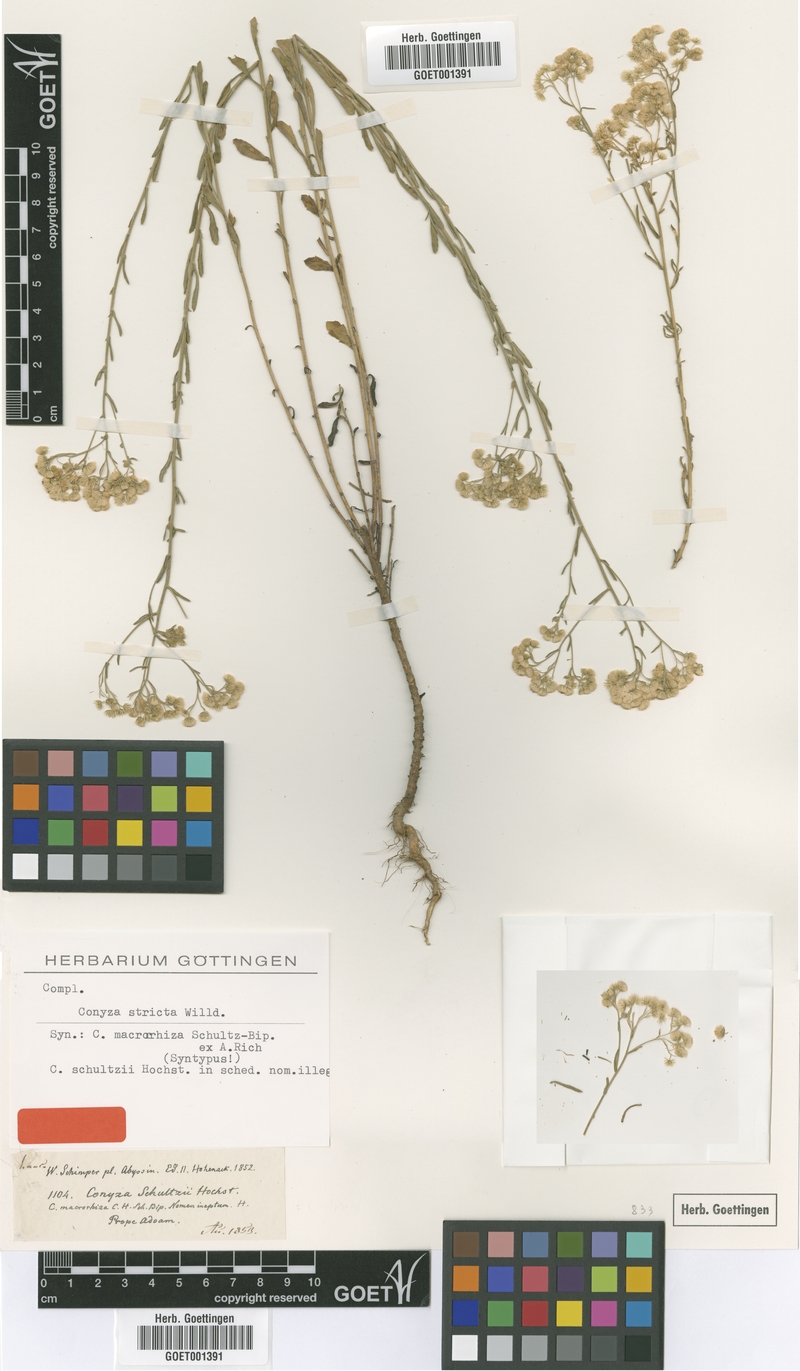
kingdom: Plantae
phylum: Tracheophyta
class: Magnoliopsida
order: Asterales
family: Asteraceae
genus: Nidorella
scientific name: Nidorella triloba
